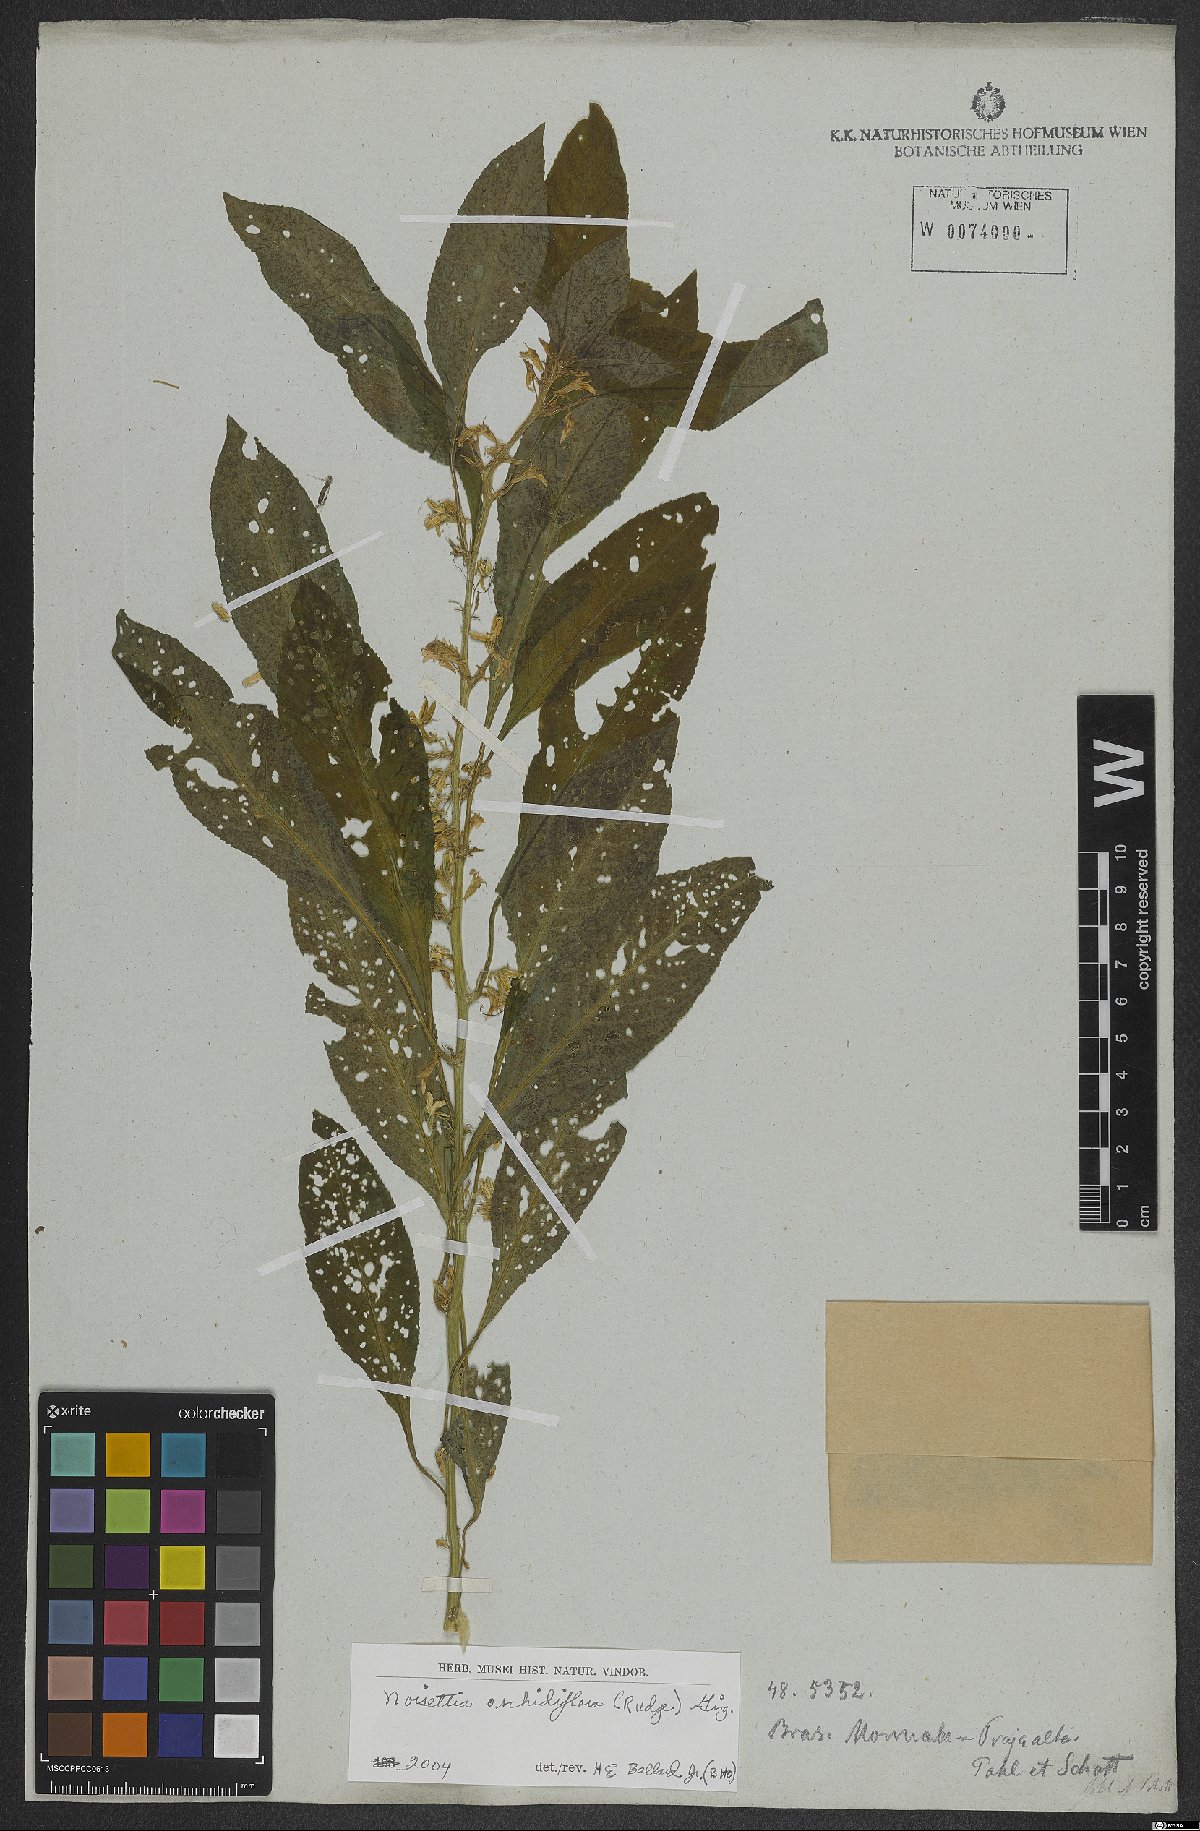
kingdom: Plantae
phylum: Tracheophyta
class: Magnoliopsida
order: Malpighiales
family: Violaceae
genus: Noisettia
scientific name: Noisettia orchidiflora
